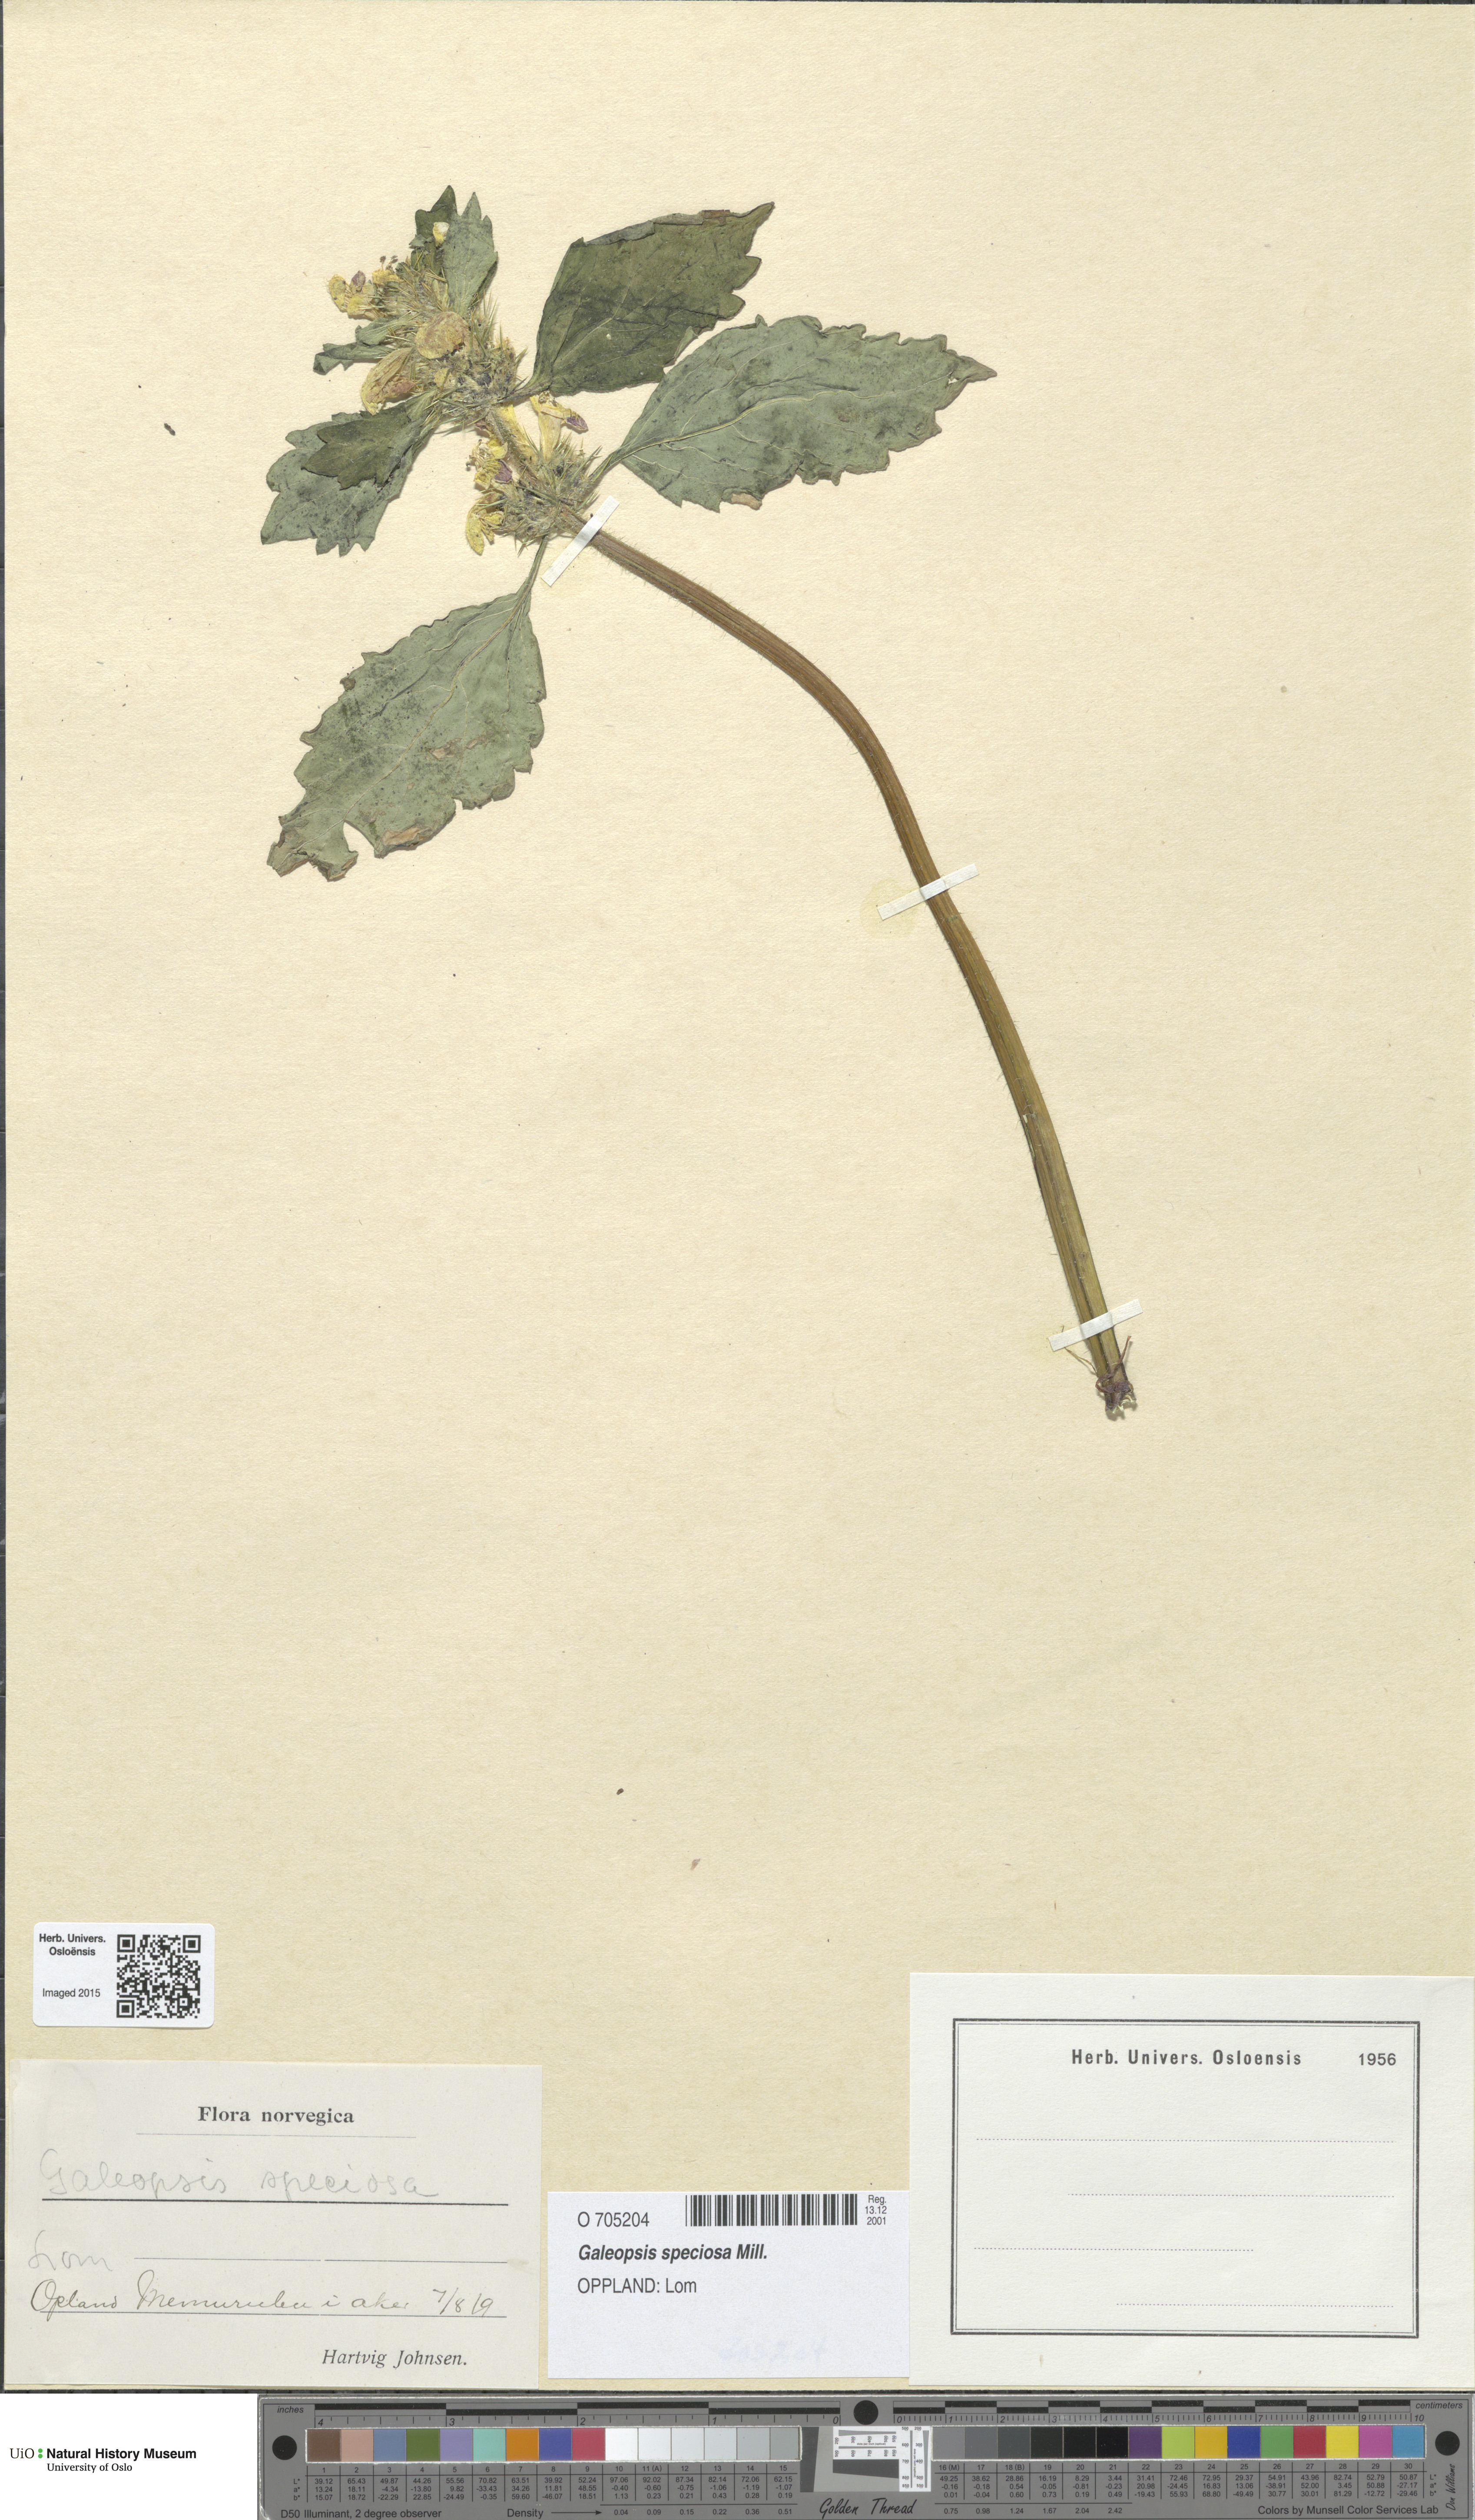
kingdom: Plantae
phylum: Tracheophyta
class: Magnoliopsida
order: Lamiales
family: Lamiaceae
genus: Galeopsis
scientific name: Galeopsis speciosa
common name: Large-flowered hemp-nettle
